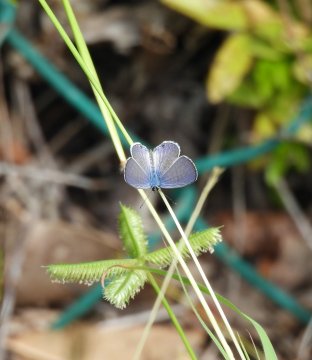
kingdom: Animalia
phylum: Arthropoda
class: Insecta
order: Lepidoptera
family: Lycaenidae
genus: Hemiargus
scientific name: Hemiargus ceraunus
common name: Ceraunus Blue
